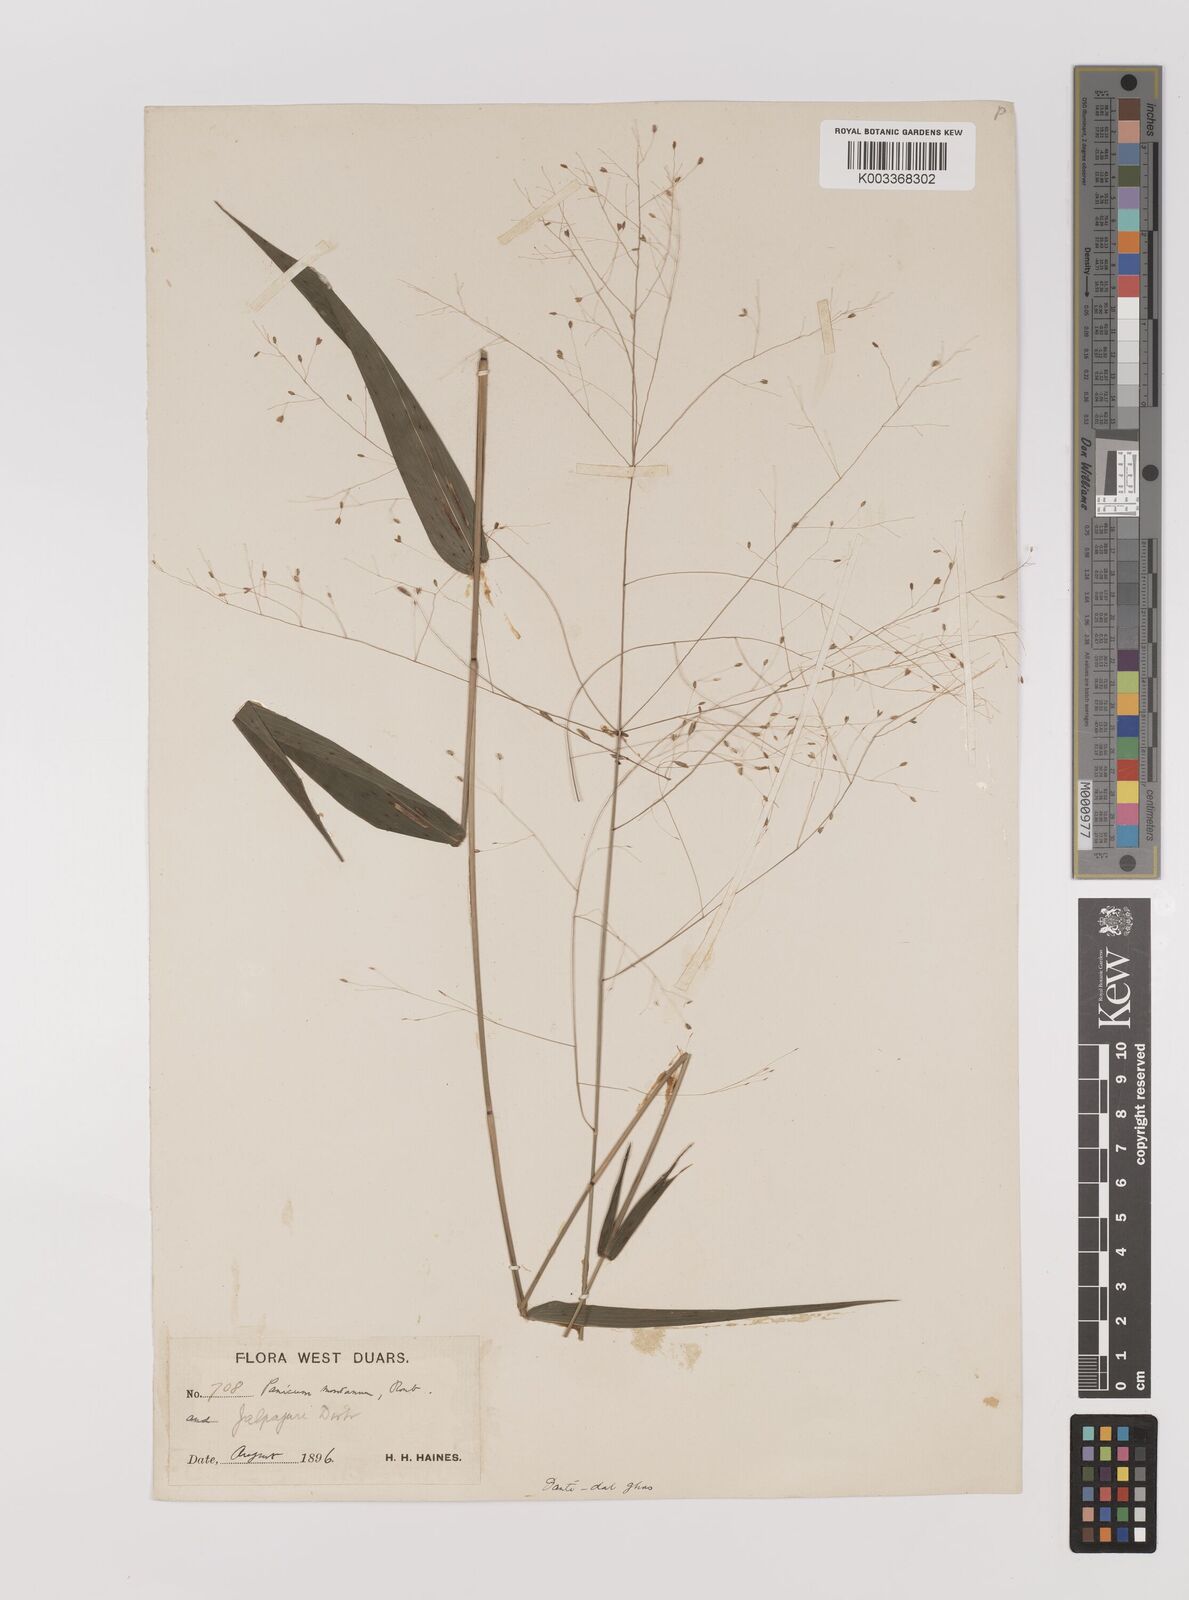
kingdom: Plantae
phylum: Tracheophyta
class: Liliopsida
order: Poales
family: Poaceae
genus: Panicum
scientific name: Panicum notatum
